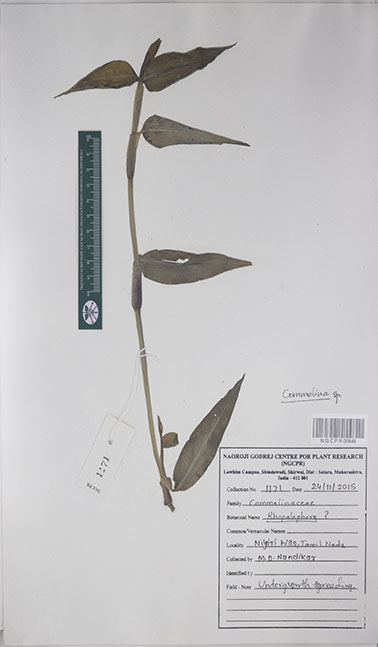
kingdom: Plantae
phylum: Tracheophyta
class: Liliopsida
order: Commelinales
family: Commelinaceae
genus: Commelina
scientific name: Commelina
